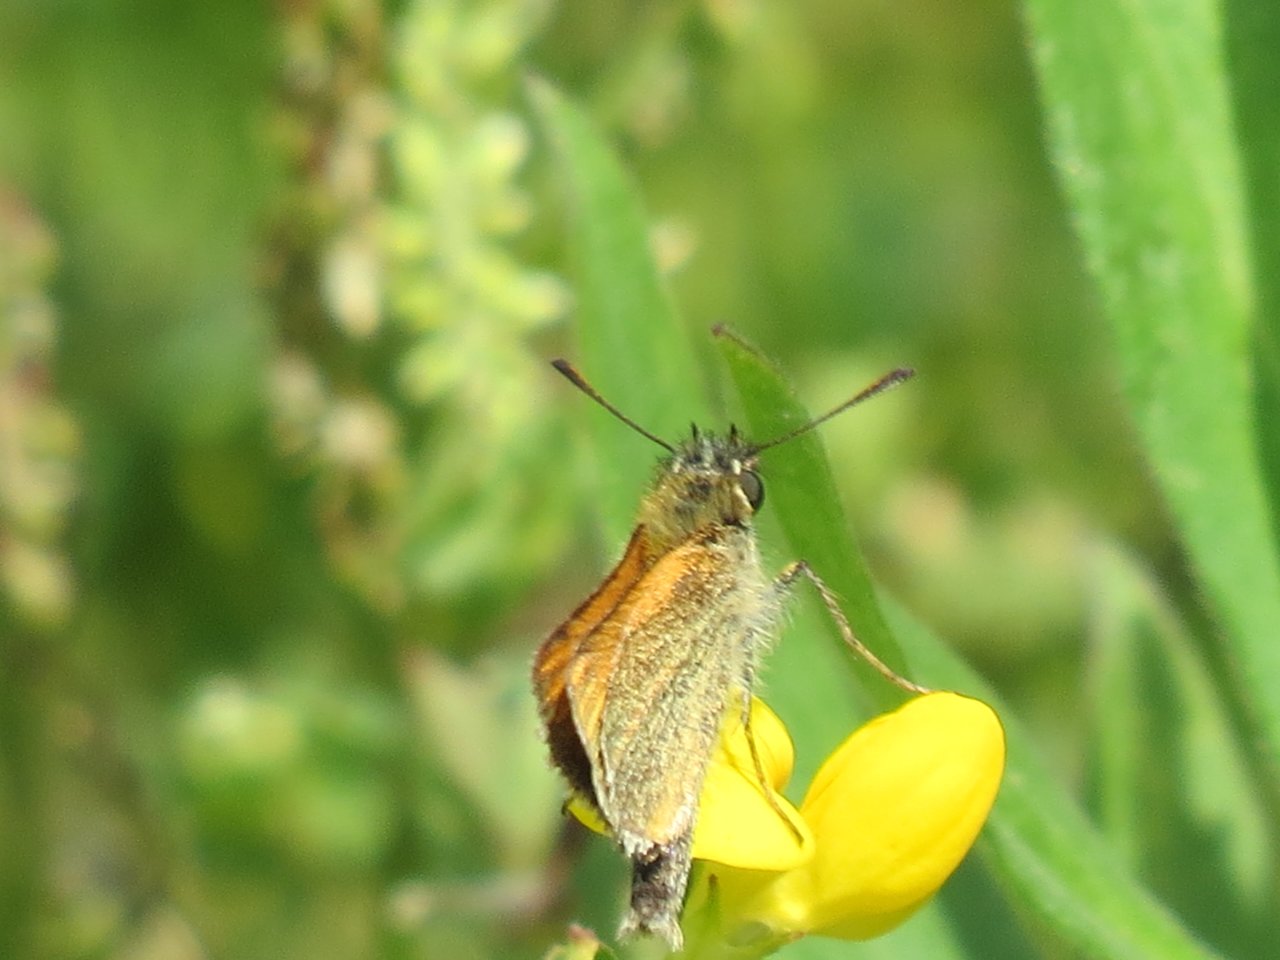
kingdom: Animalia
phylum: Arthropoda
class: Insecta
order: Lepidoptera
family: Hesperiidae
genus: Thymelicus
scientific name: Thymelicus lineola
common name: European Skipper
